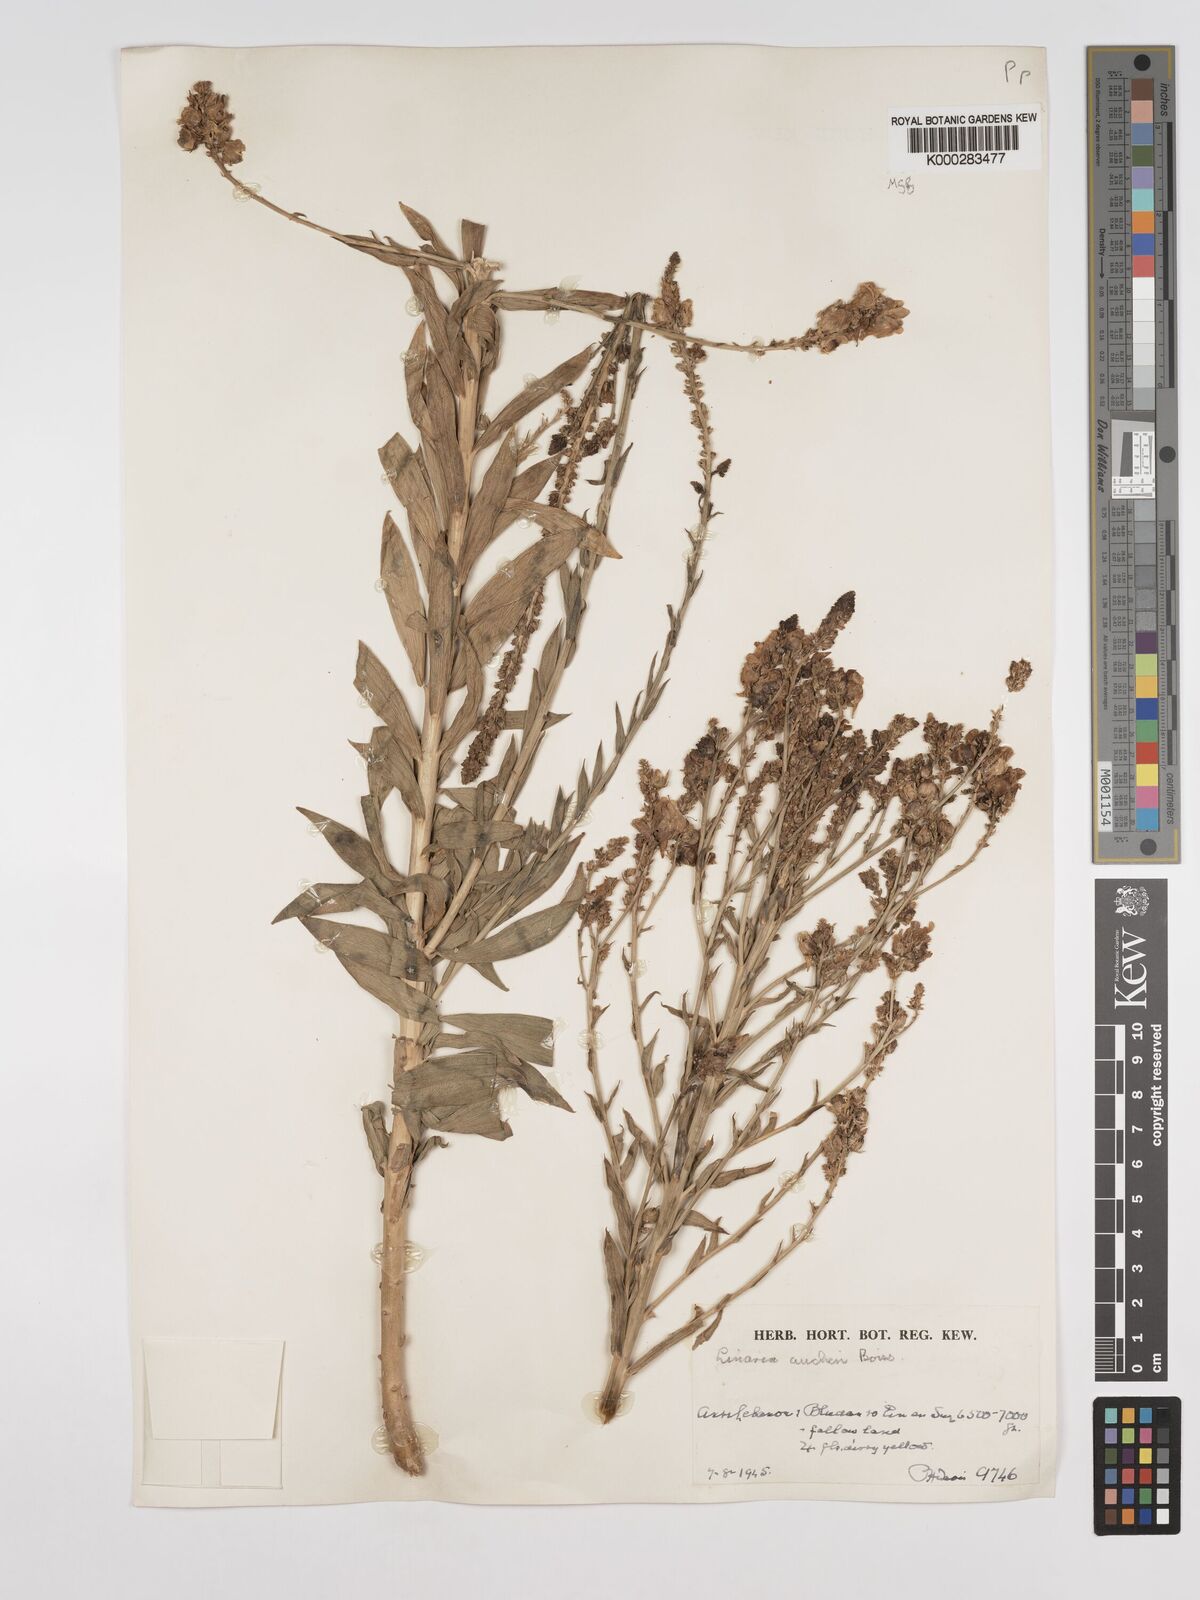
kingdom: Plantae
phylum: Tracheophyta
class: Magnoliopsida
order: Lamiales
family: Plantaginaceae
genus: Linaria
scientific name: Linaria kurdica
